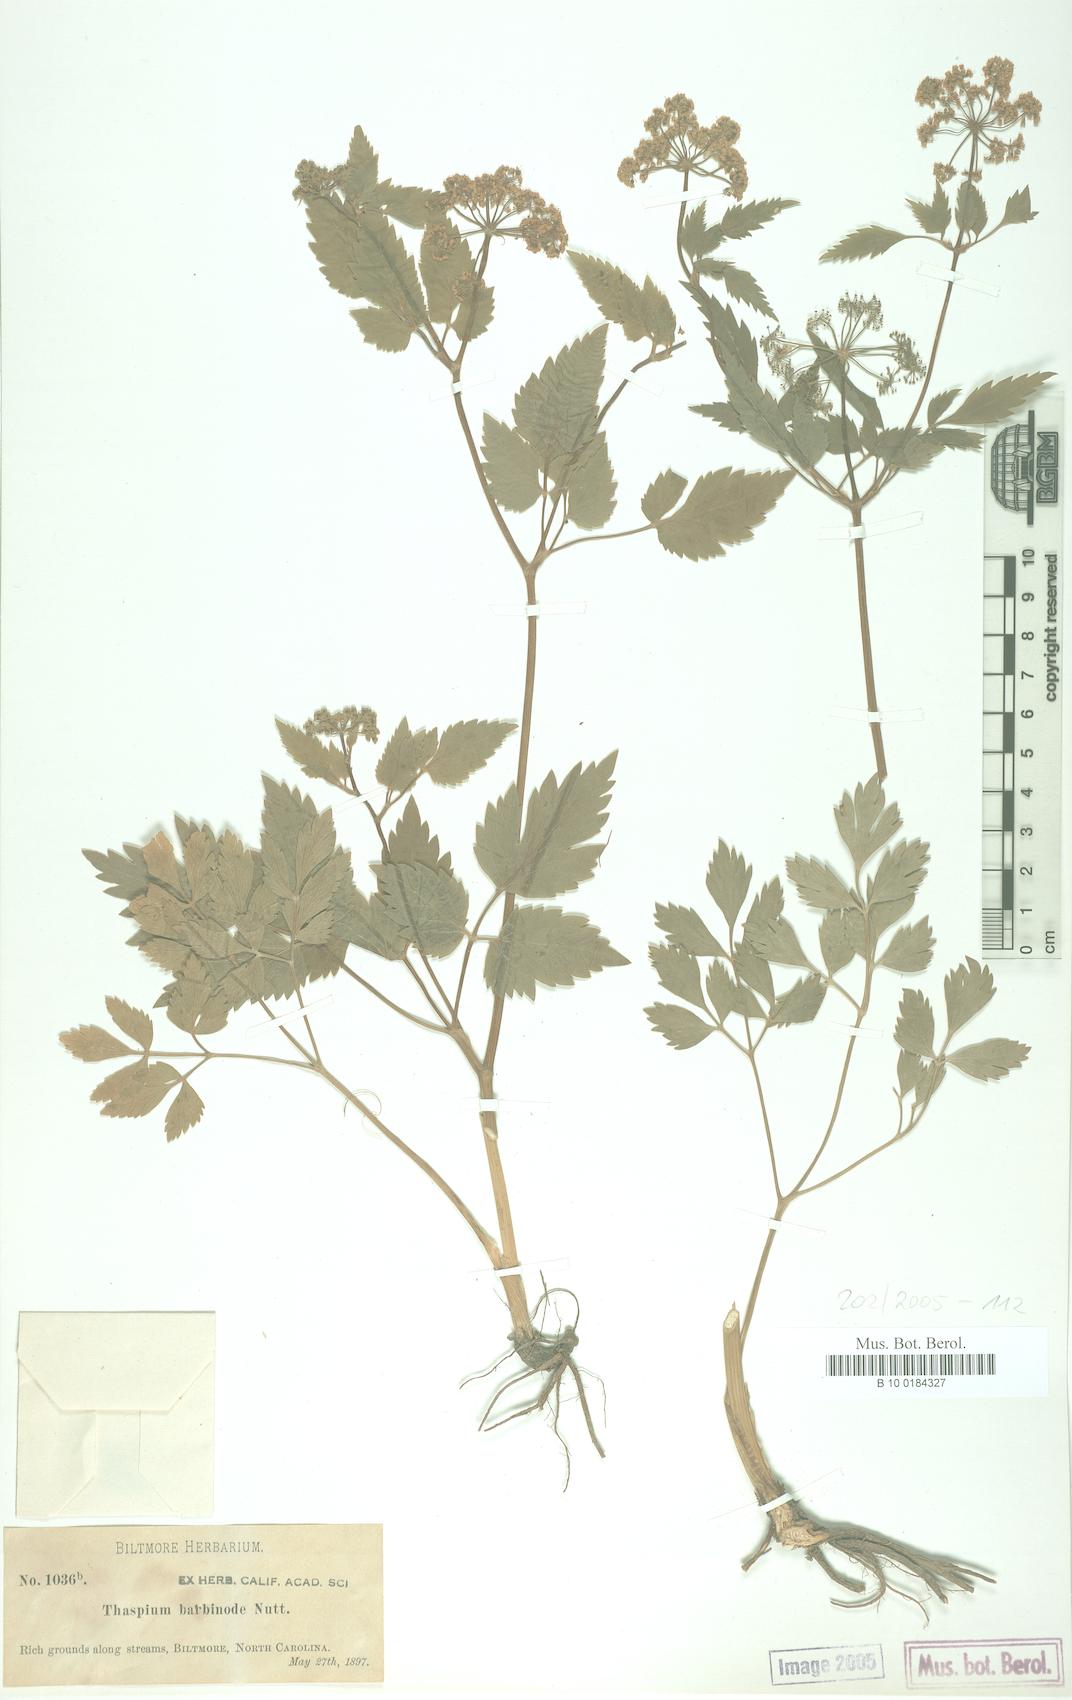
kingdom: Plantae
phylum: Tracheophyta
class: Magnoliopsida
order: Apiales
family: Apiaceae
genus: Thaspium
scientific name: Thaspium barbinode
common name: Bearded meadow-parsnip
